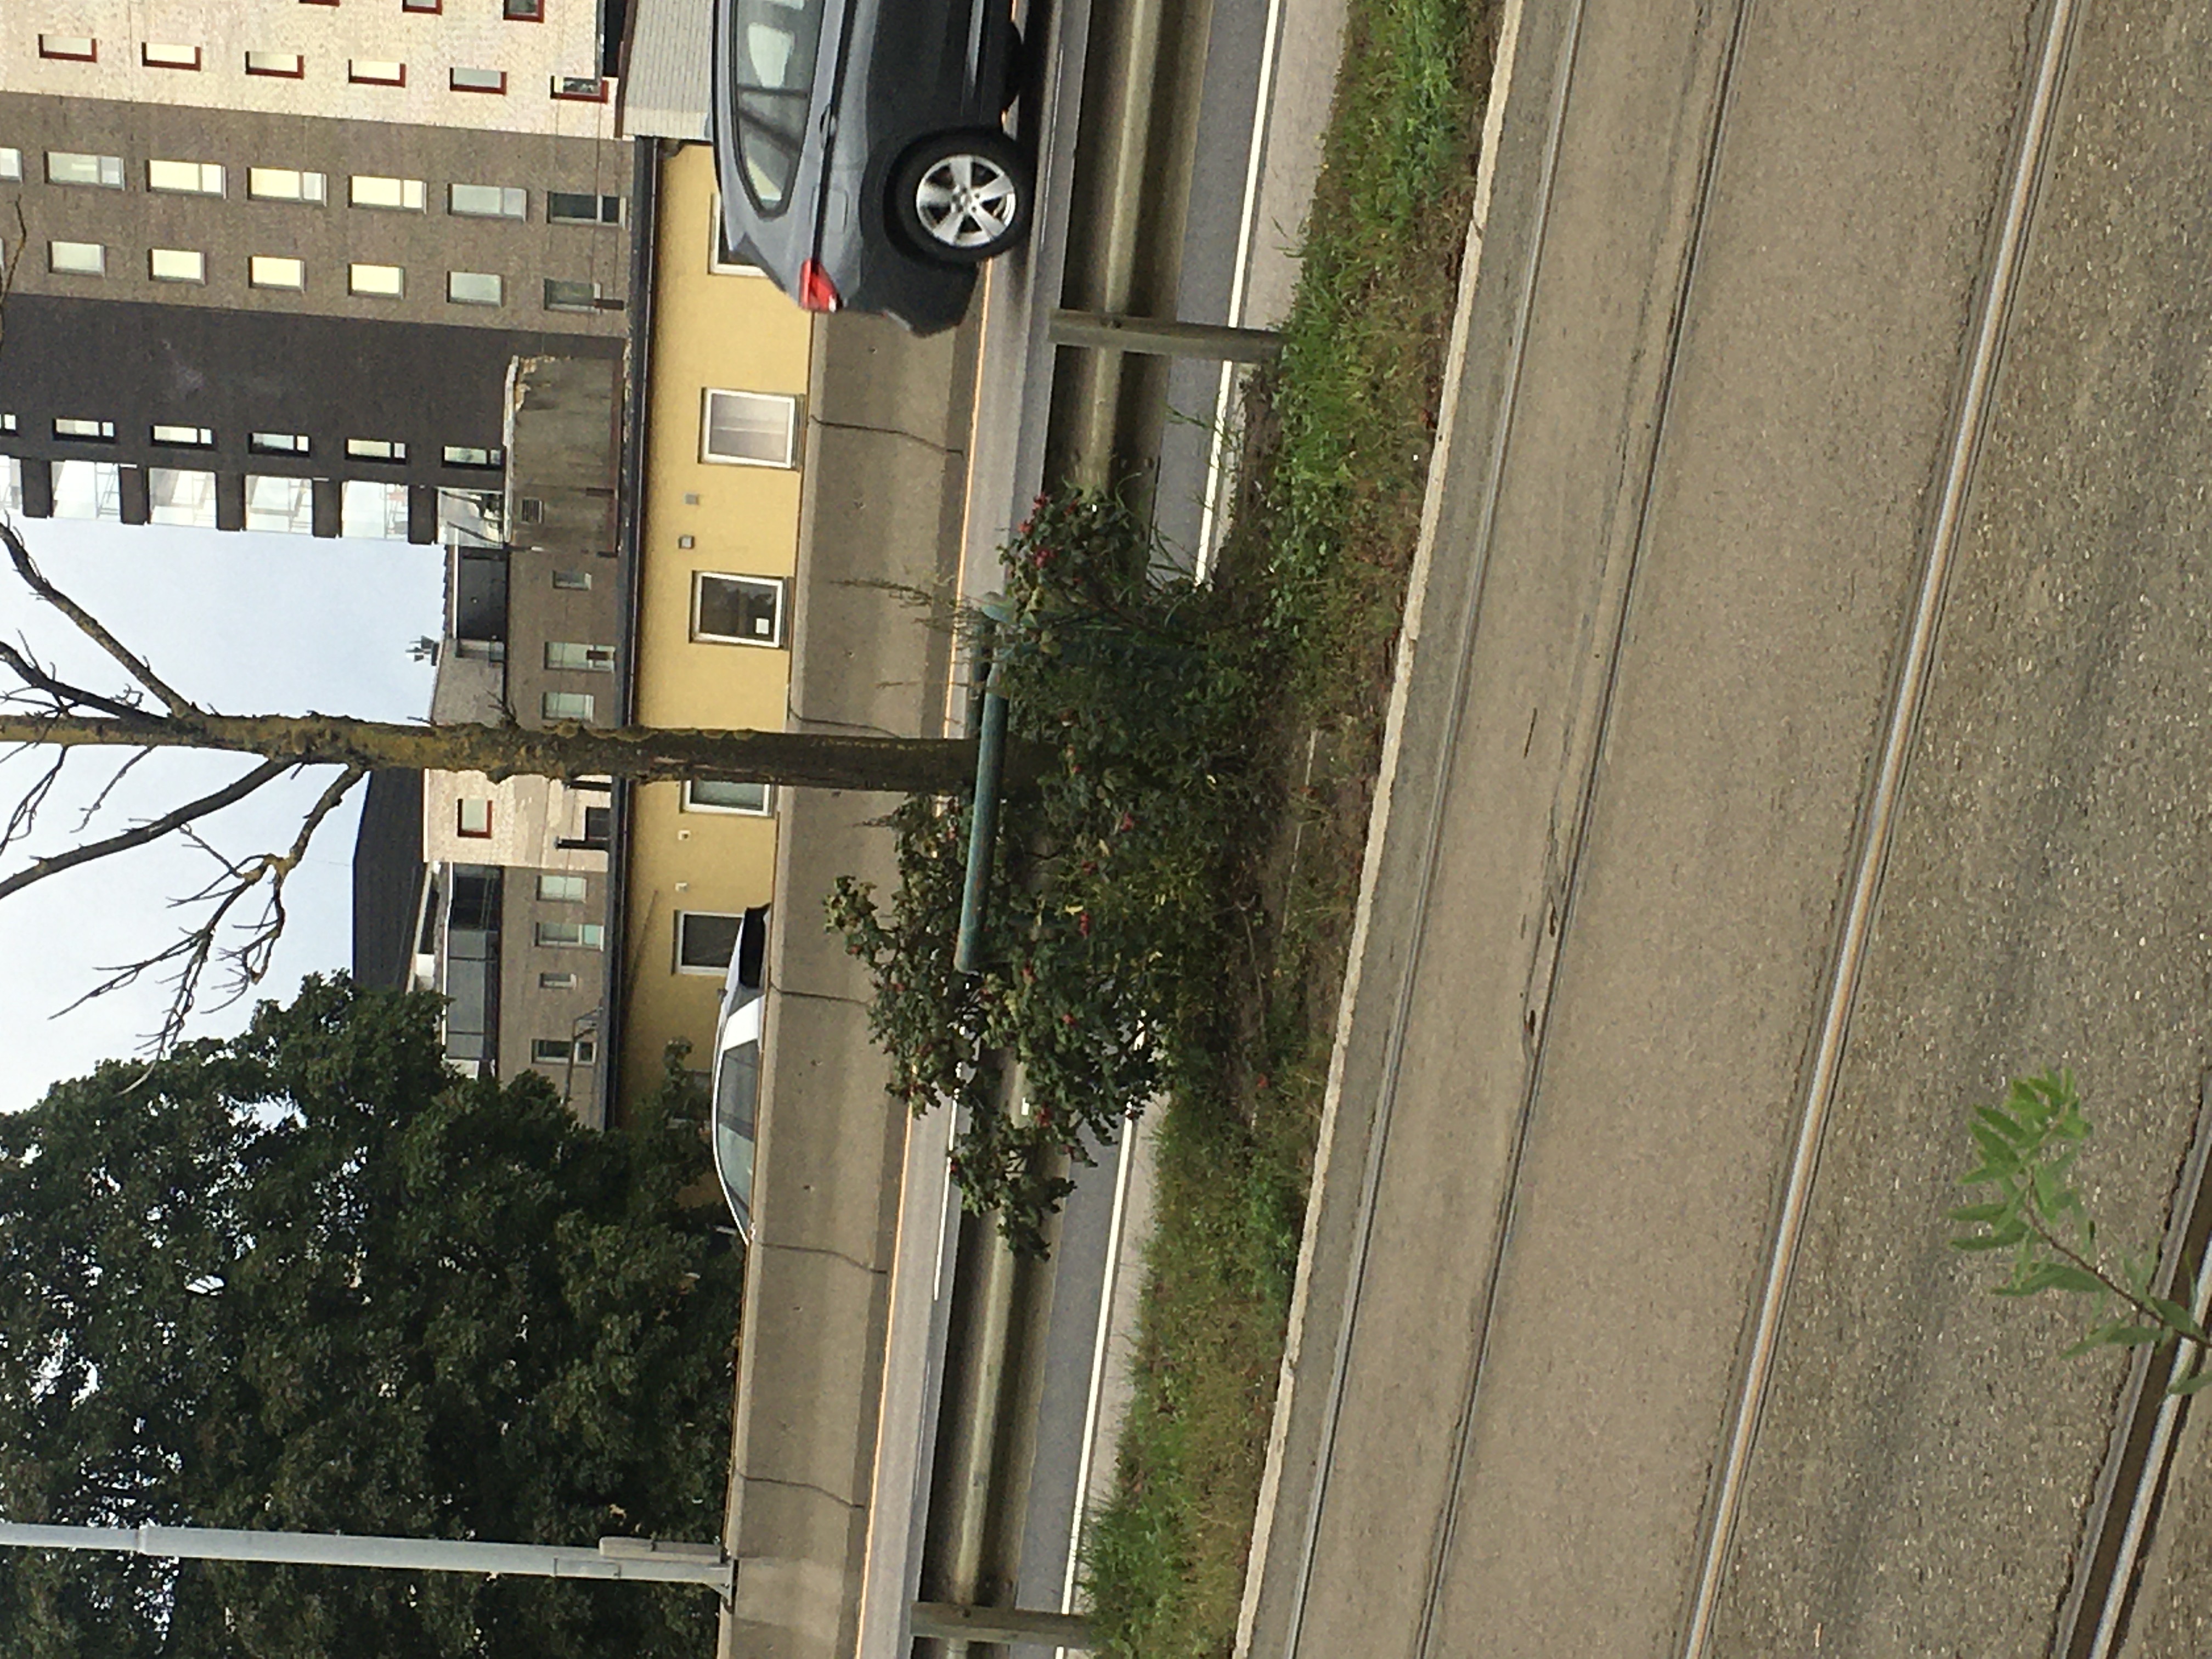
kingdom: Plantae
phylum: Tracheophyta
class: Magnoliopsida
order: Rosales
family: Rosaceae
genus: Rosa
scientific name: Rosa rugosa
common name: rynkerose
